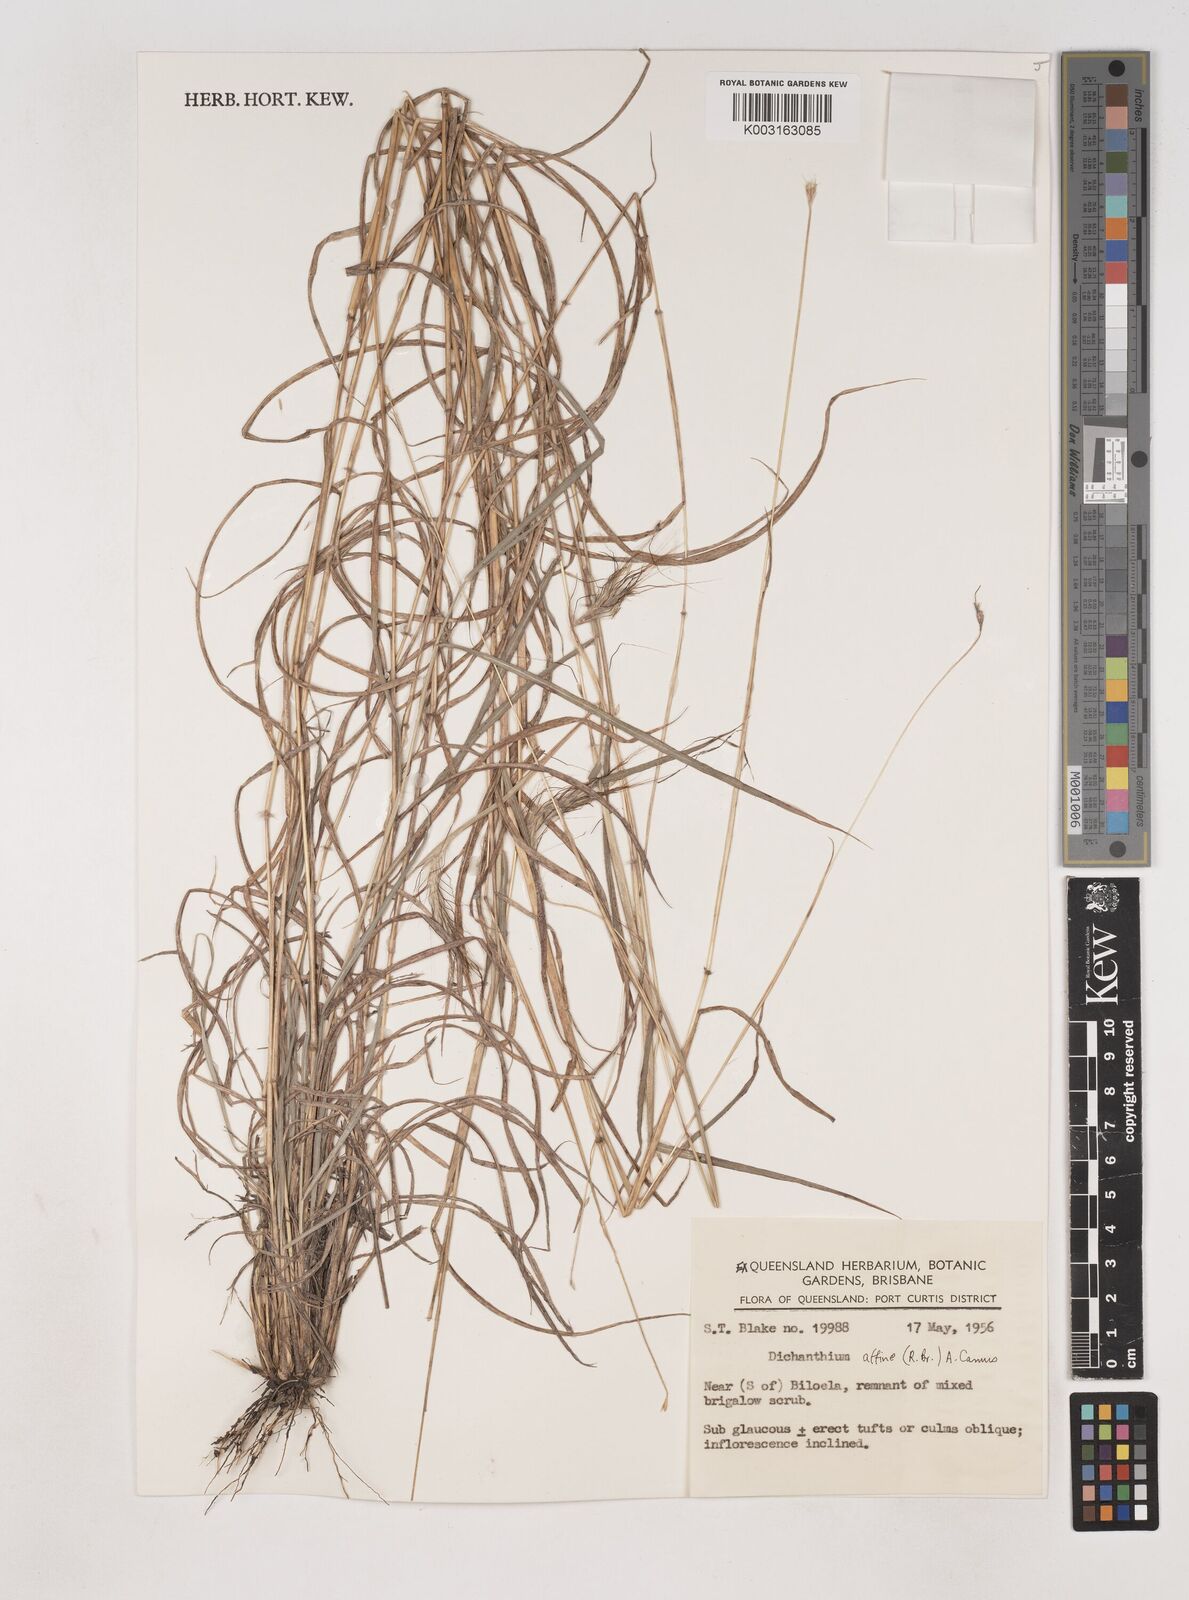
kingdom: Plantae
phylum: Tracheophyta
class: Liliopsida
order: Poales
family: Poaceae
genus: Dichanthium
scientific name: Dichanthium sericeum
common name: Silky bluestem
